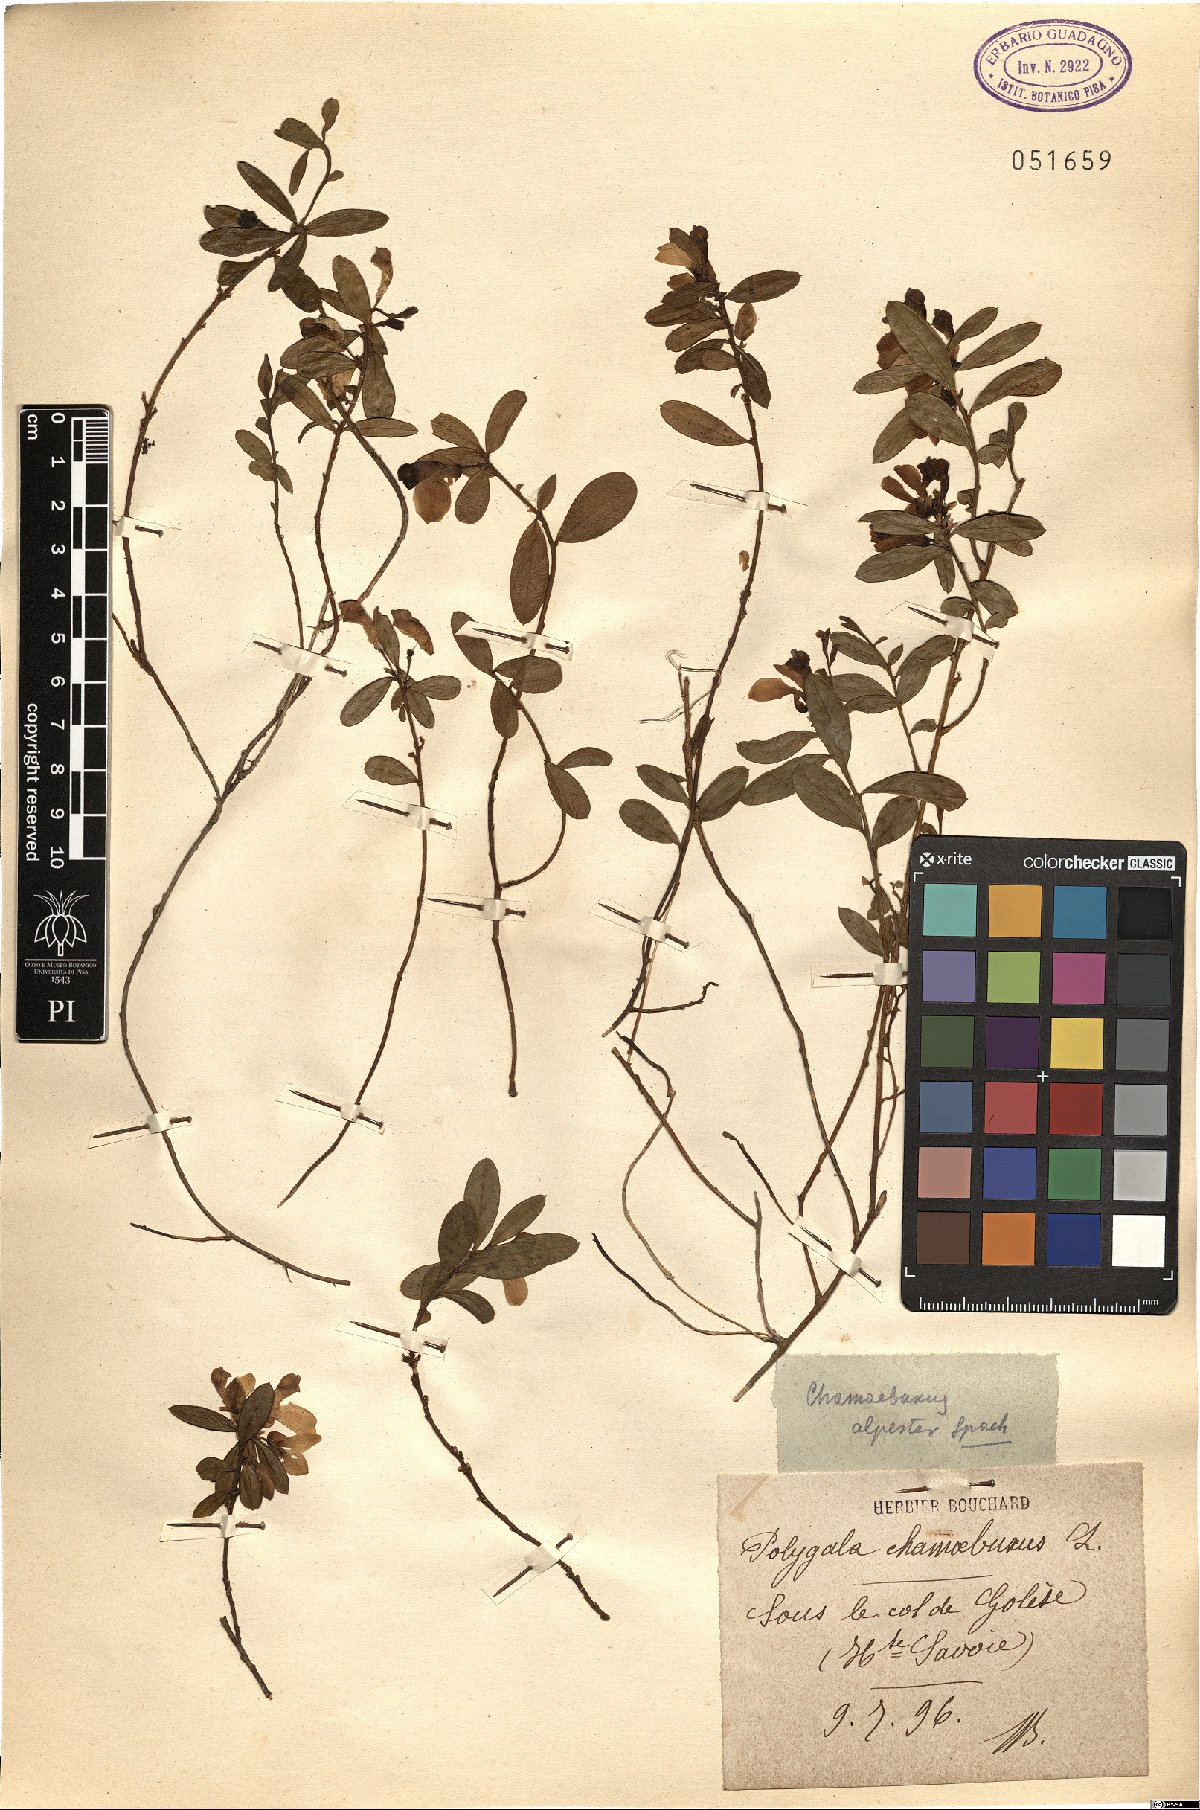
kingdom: Plantae
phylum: Tracheophyta
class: Magnoliopsida
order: Fabales
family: Polygalaceae
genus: Polygaloides
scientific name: Polygaloides chamaebuxus
